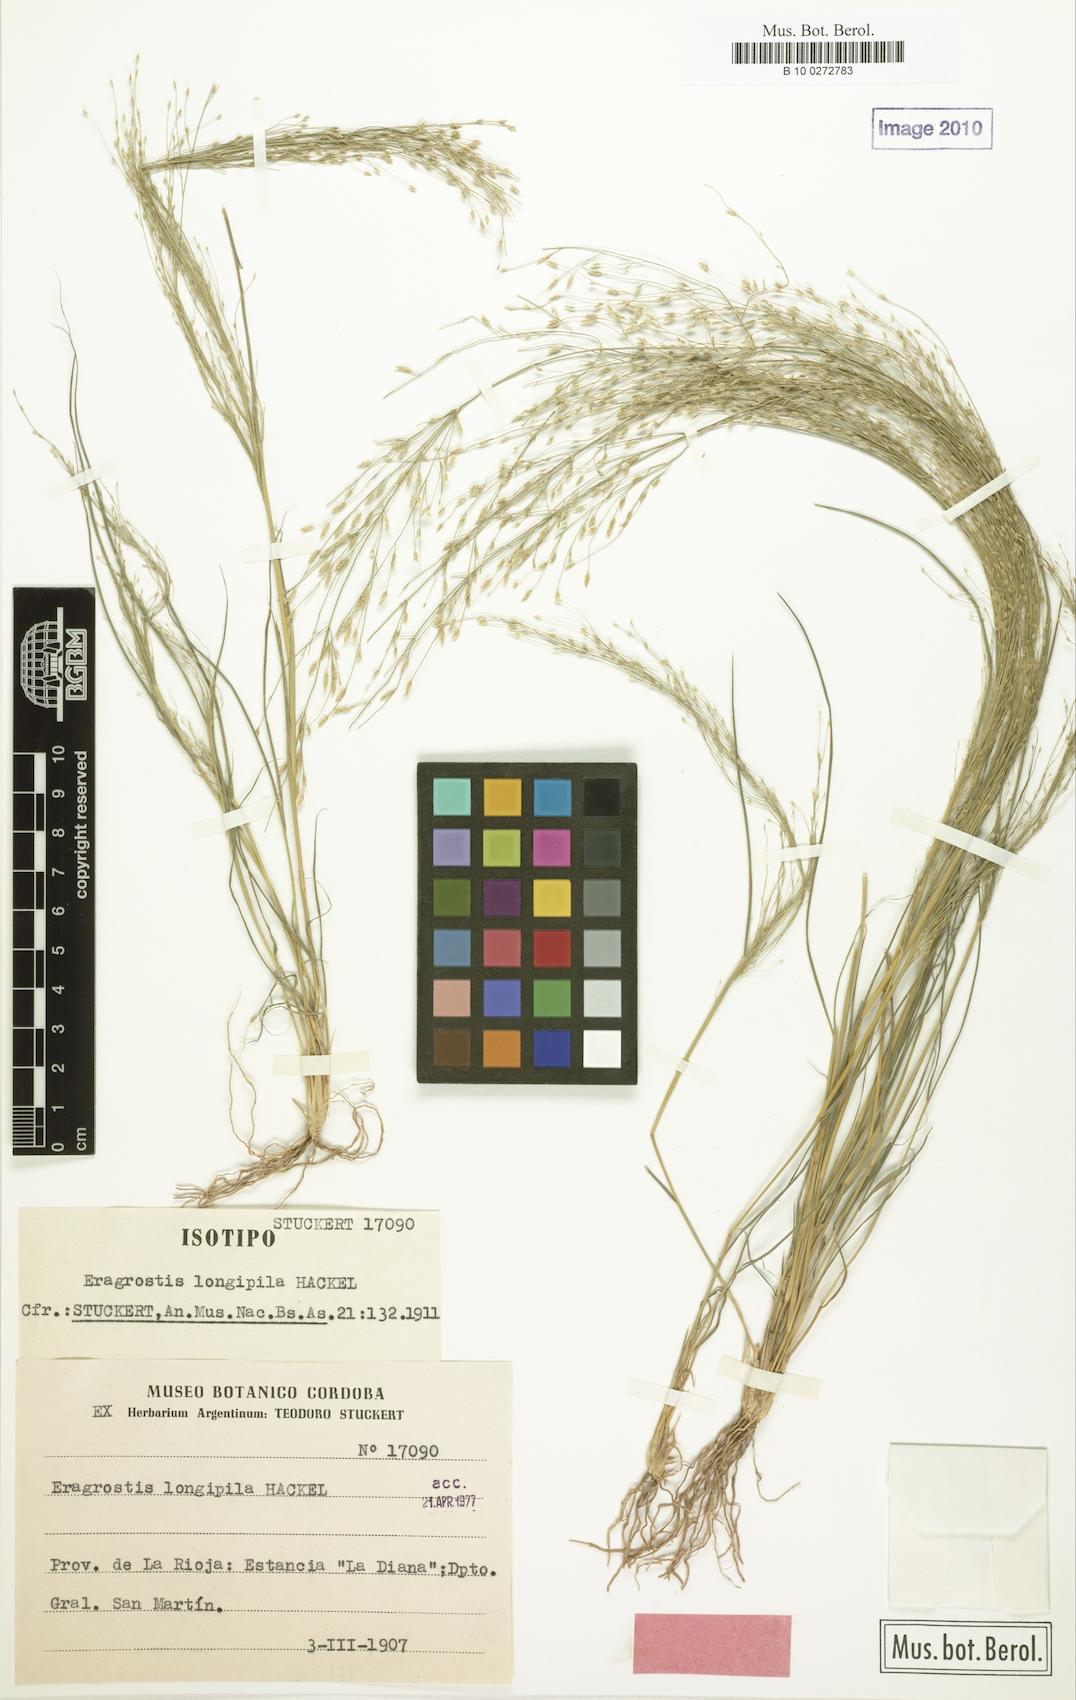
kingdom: Plantae
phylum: Tracheophyta
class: Liliopsida
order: Poales
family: Poaceae
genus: Eragrostis
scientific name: Eragrostis orthoclada
